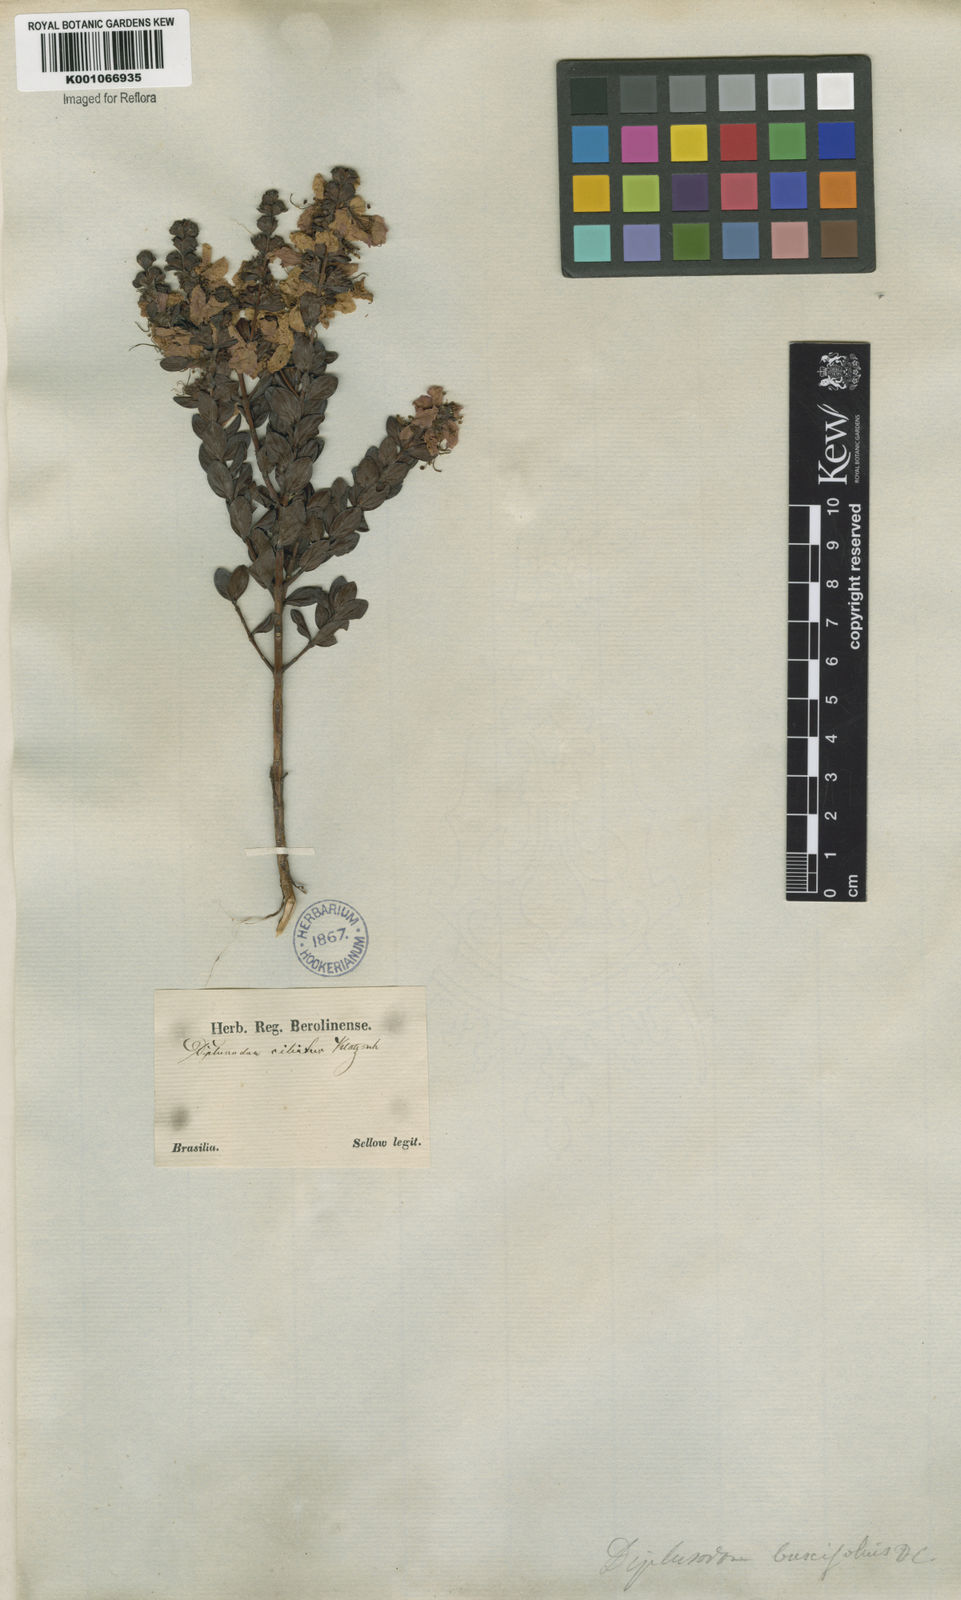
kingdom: Plantae
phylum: Tracheophyta
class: Magnoliopsida
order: Myrtales
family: Lythraceae
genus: Diplusodon
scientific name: Diplusodon buxifolius
